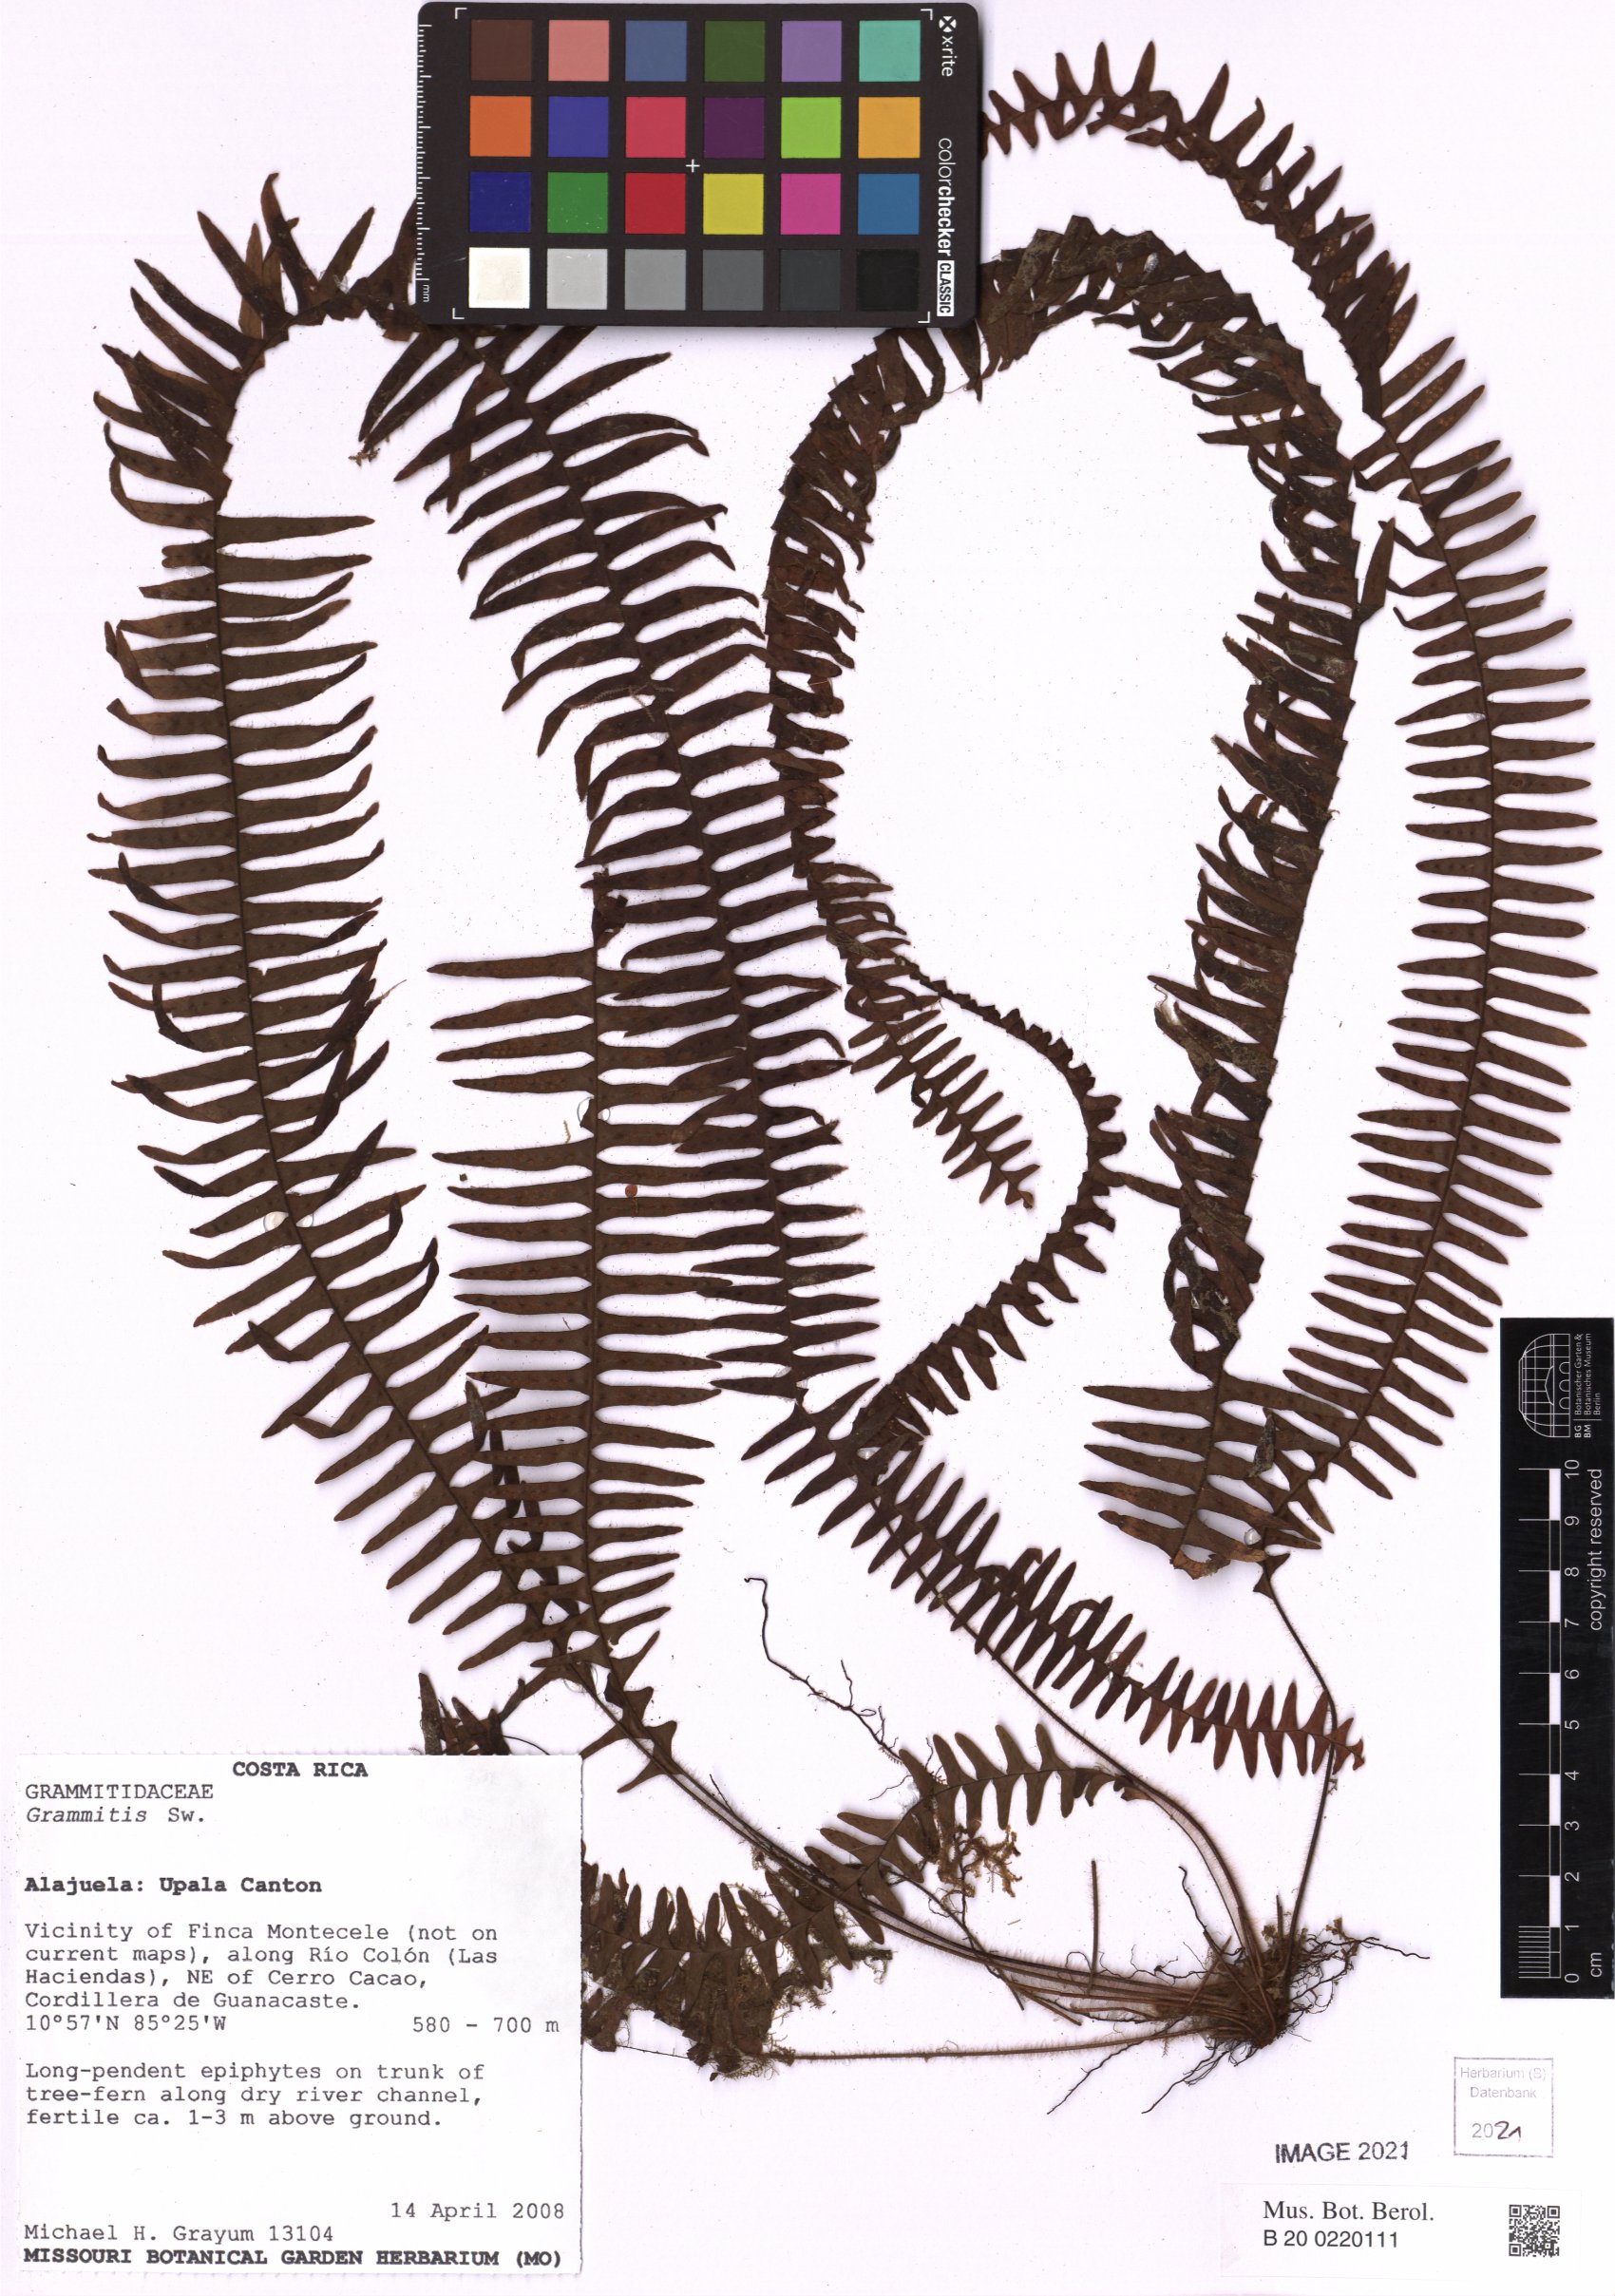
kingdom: Plantae
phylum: Tracheophyta
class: Polypodiopsida
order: Polypodiales
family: Polypodiaceae
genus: Grammitis
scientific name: Grammitis
